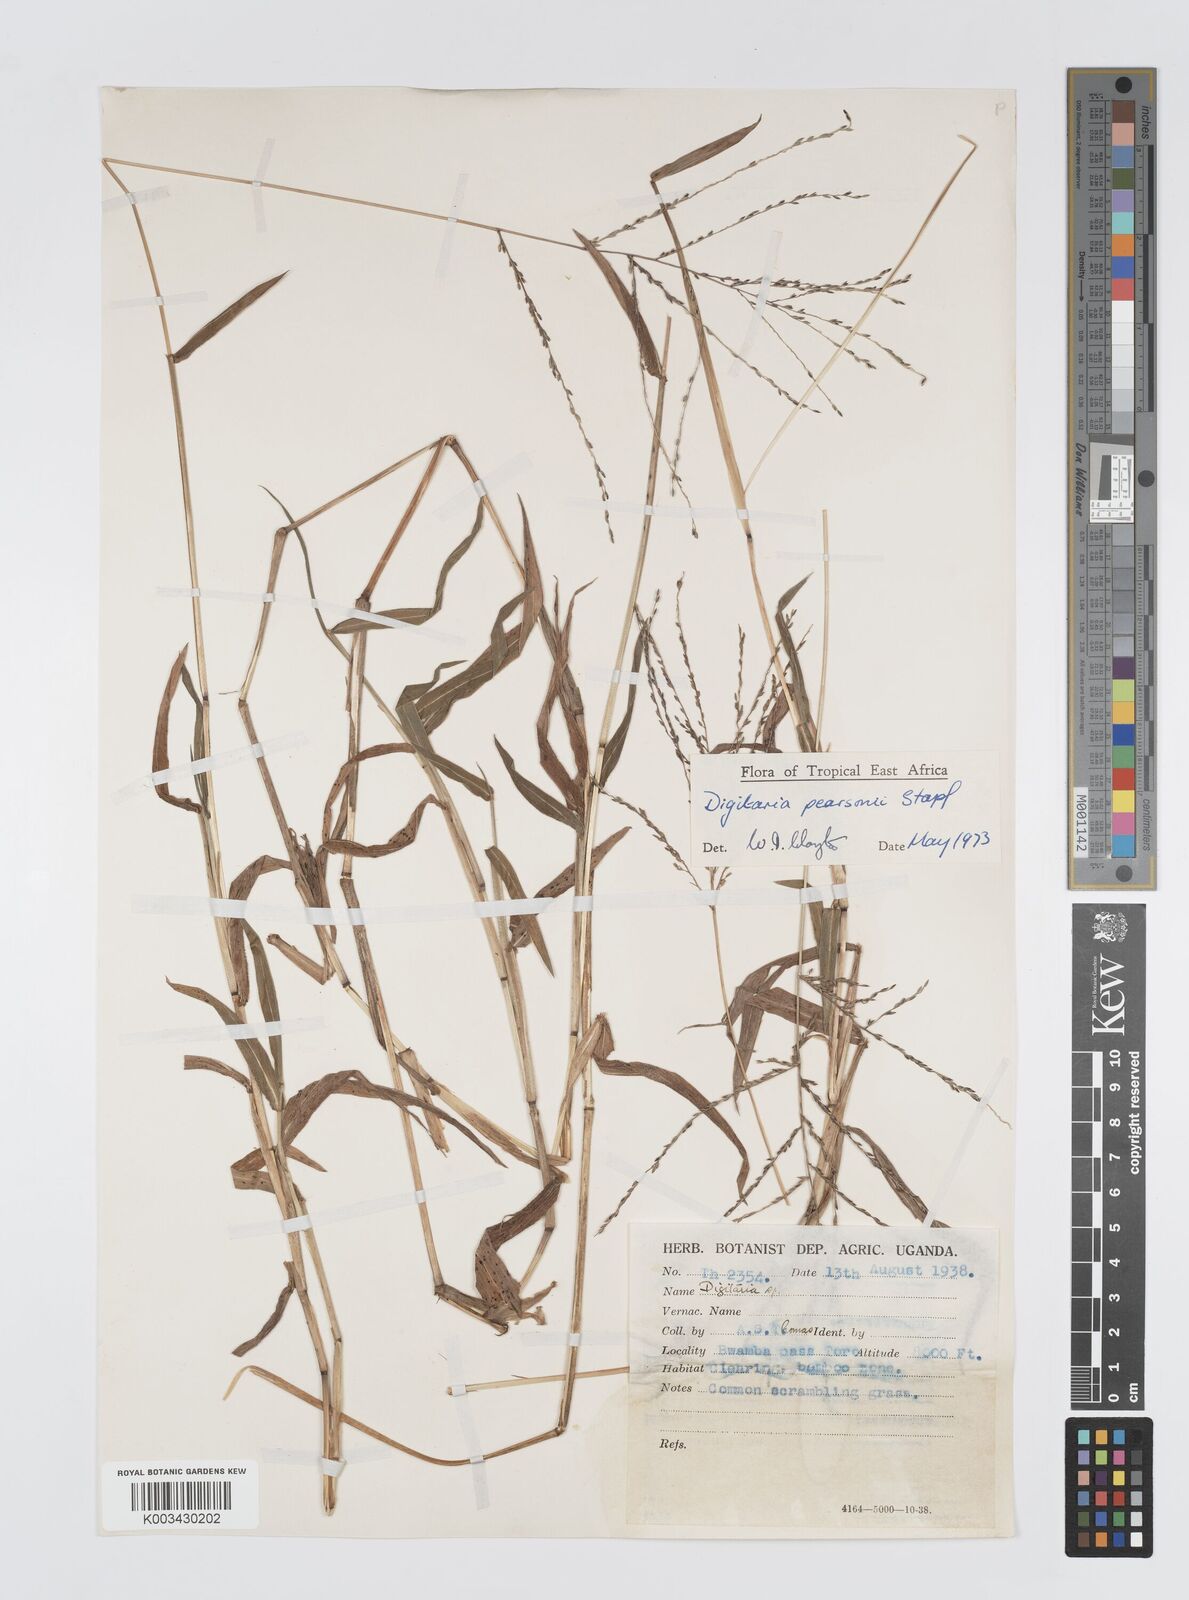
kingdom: Plantae
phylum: Tracheophyta
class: Liliopsida
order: Poales
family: Poaceae
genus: Digitaria
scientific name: Digitaria pearsonii
